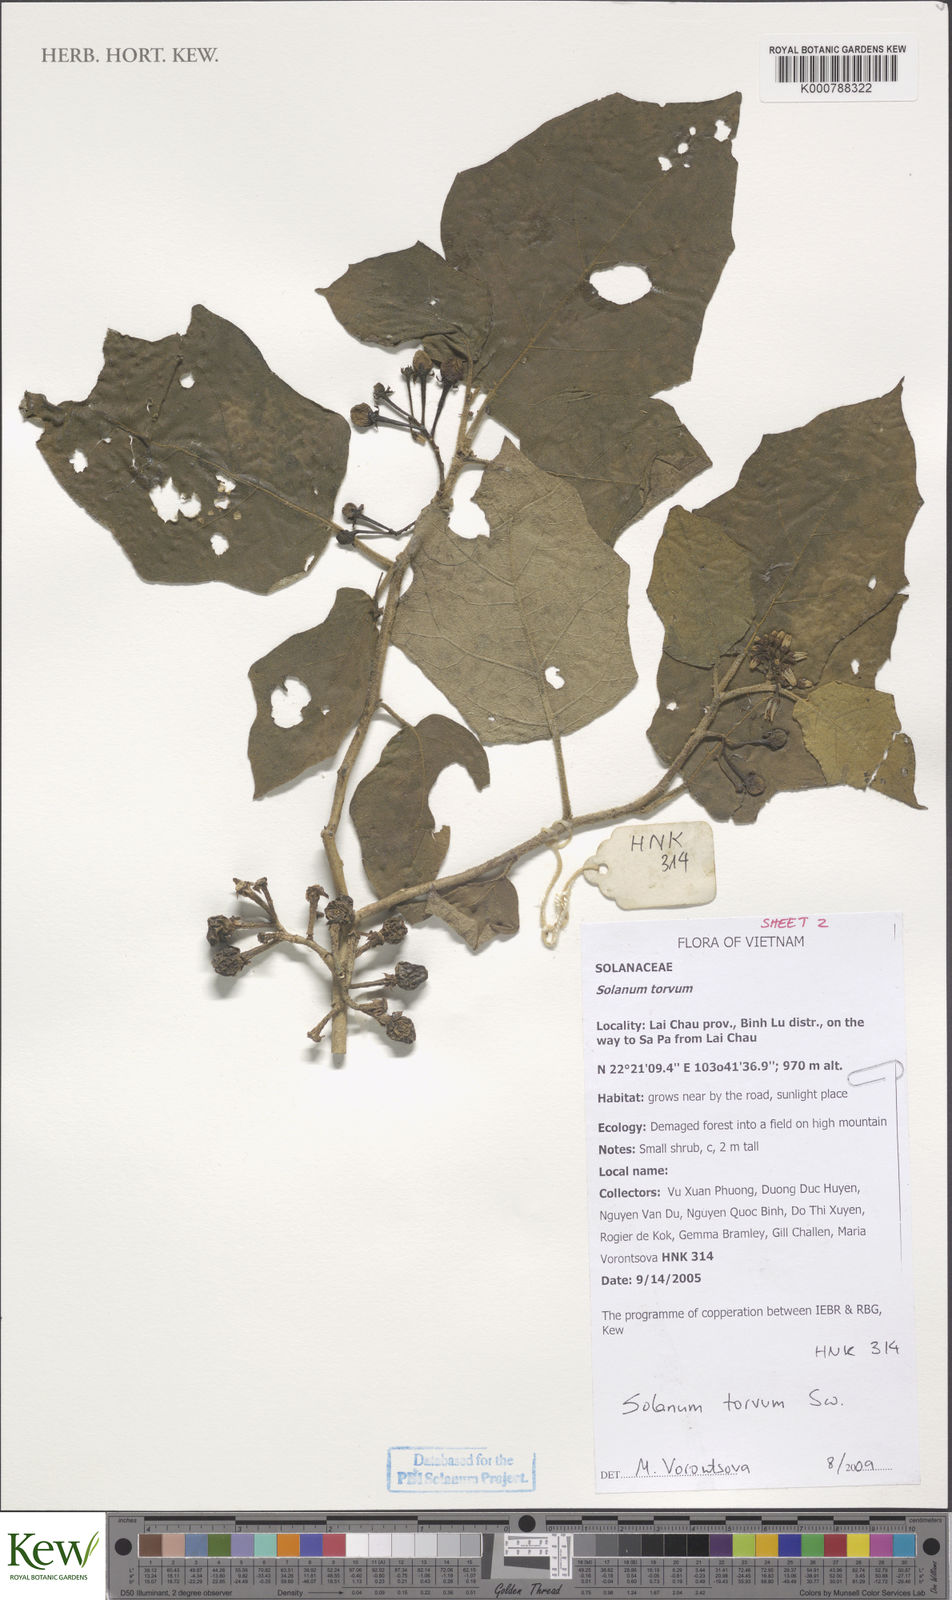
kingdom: Plantae
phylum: Tracheophyta
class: Magnoliopsida
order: Solanales
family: Solanaceae
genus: Solanum
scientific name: Solanum torvum
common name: Turkey berry
